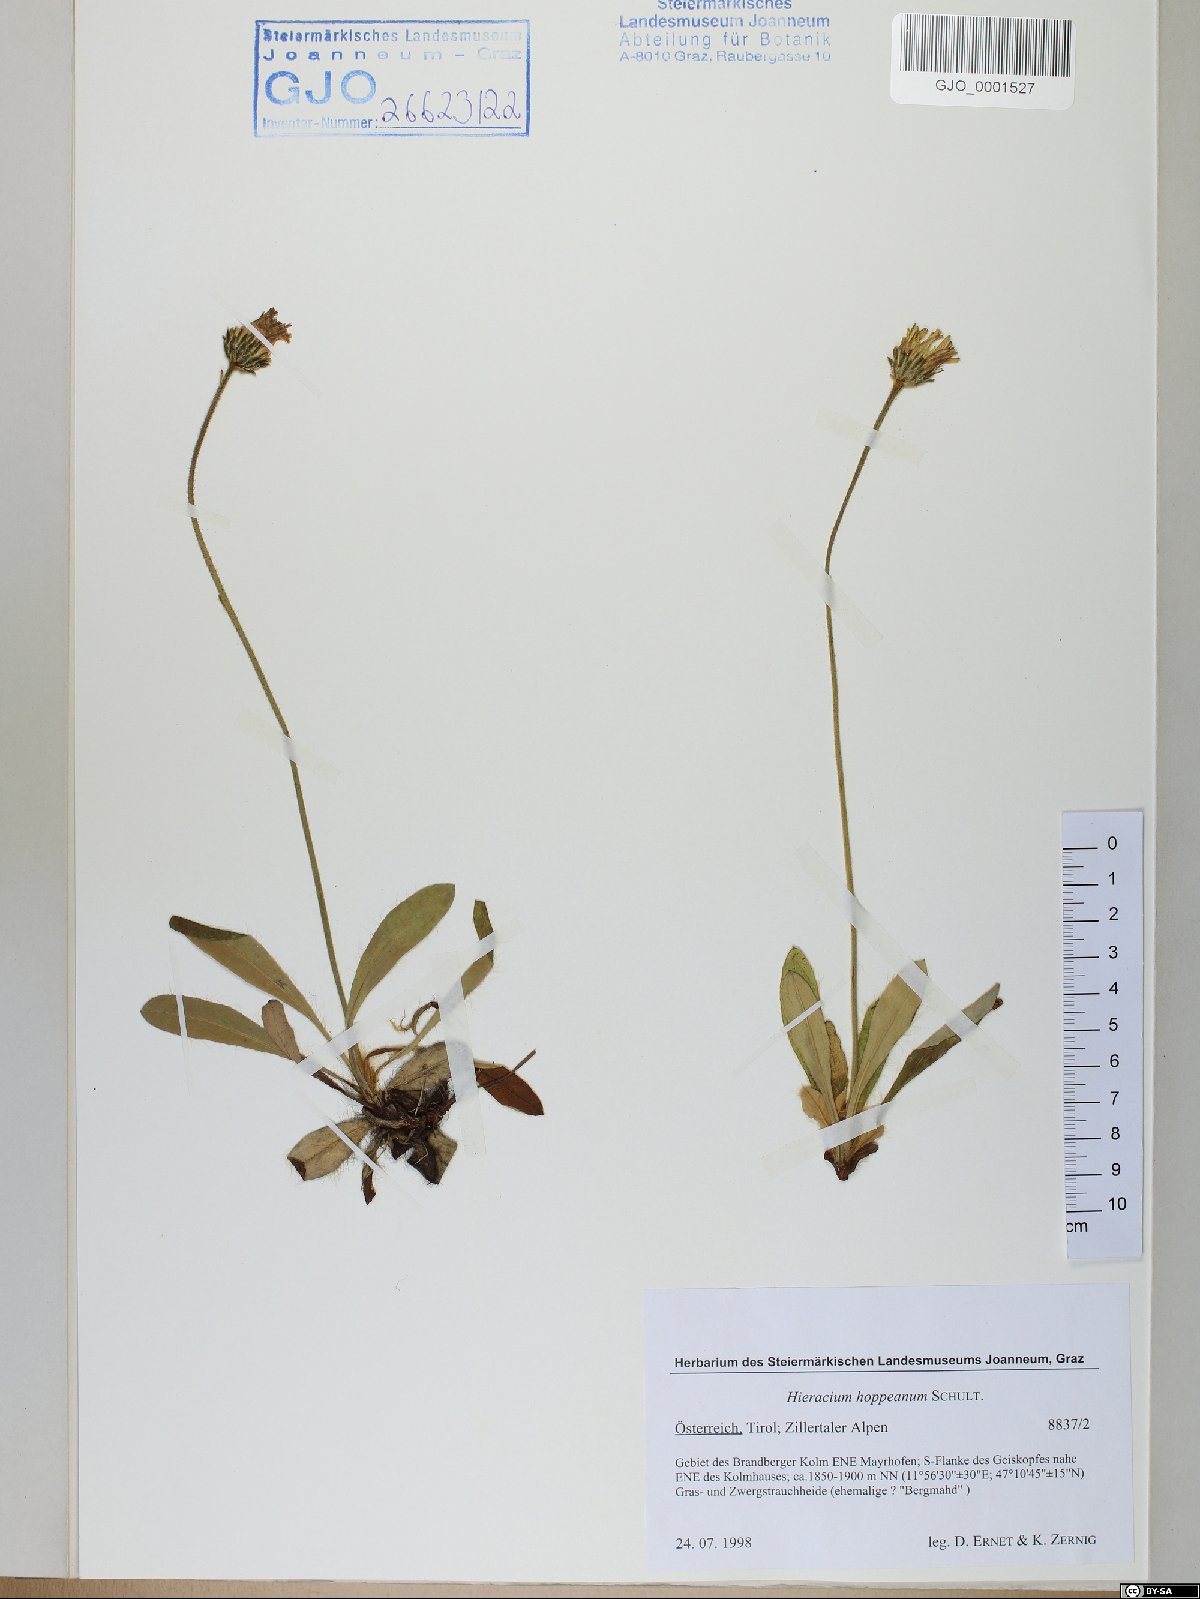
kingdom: Plantae
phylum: Tracheophyta
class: Magnoliopsida
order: Asterales
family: Asteraceae
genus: Pilosella
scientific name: Pilosella hoppeana
